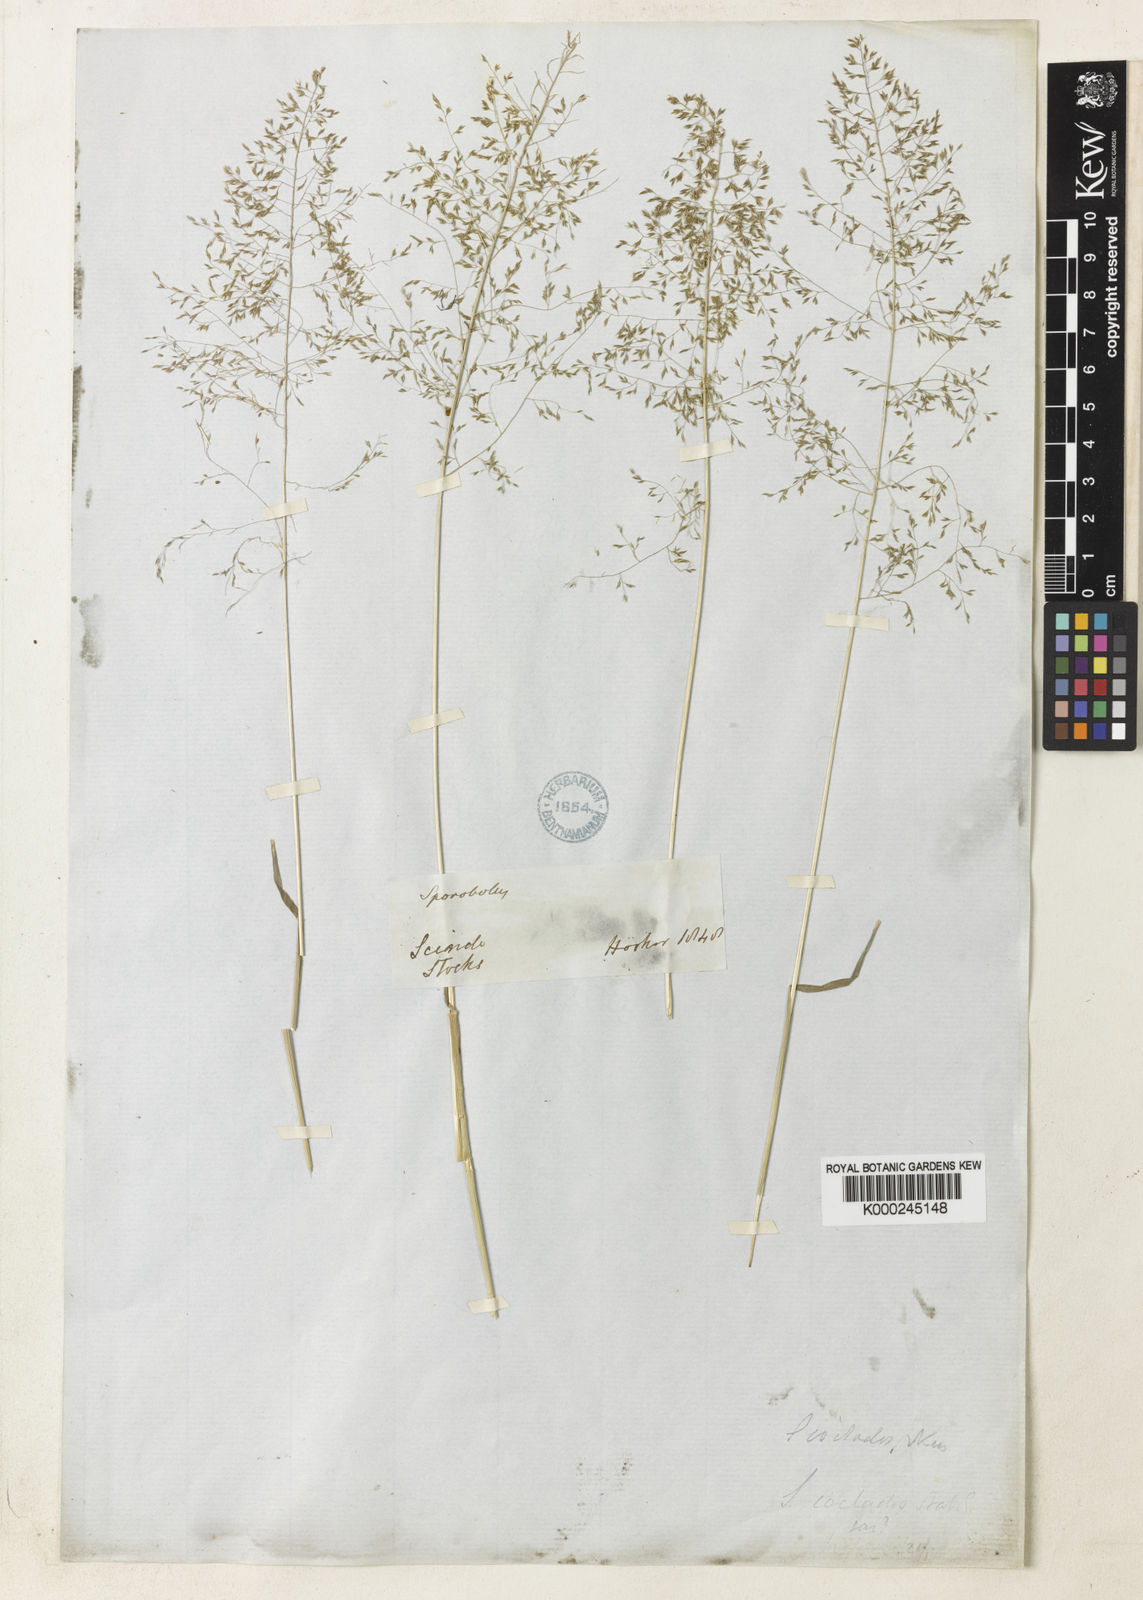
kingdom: Plantae
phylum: Tracheophyta
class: Liliopsida
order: Poales
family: Poaceae
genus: Sporobolus
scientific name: Sporobolus nervosus
